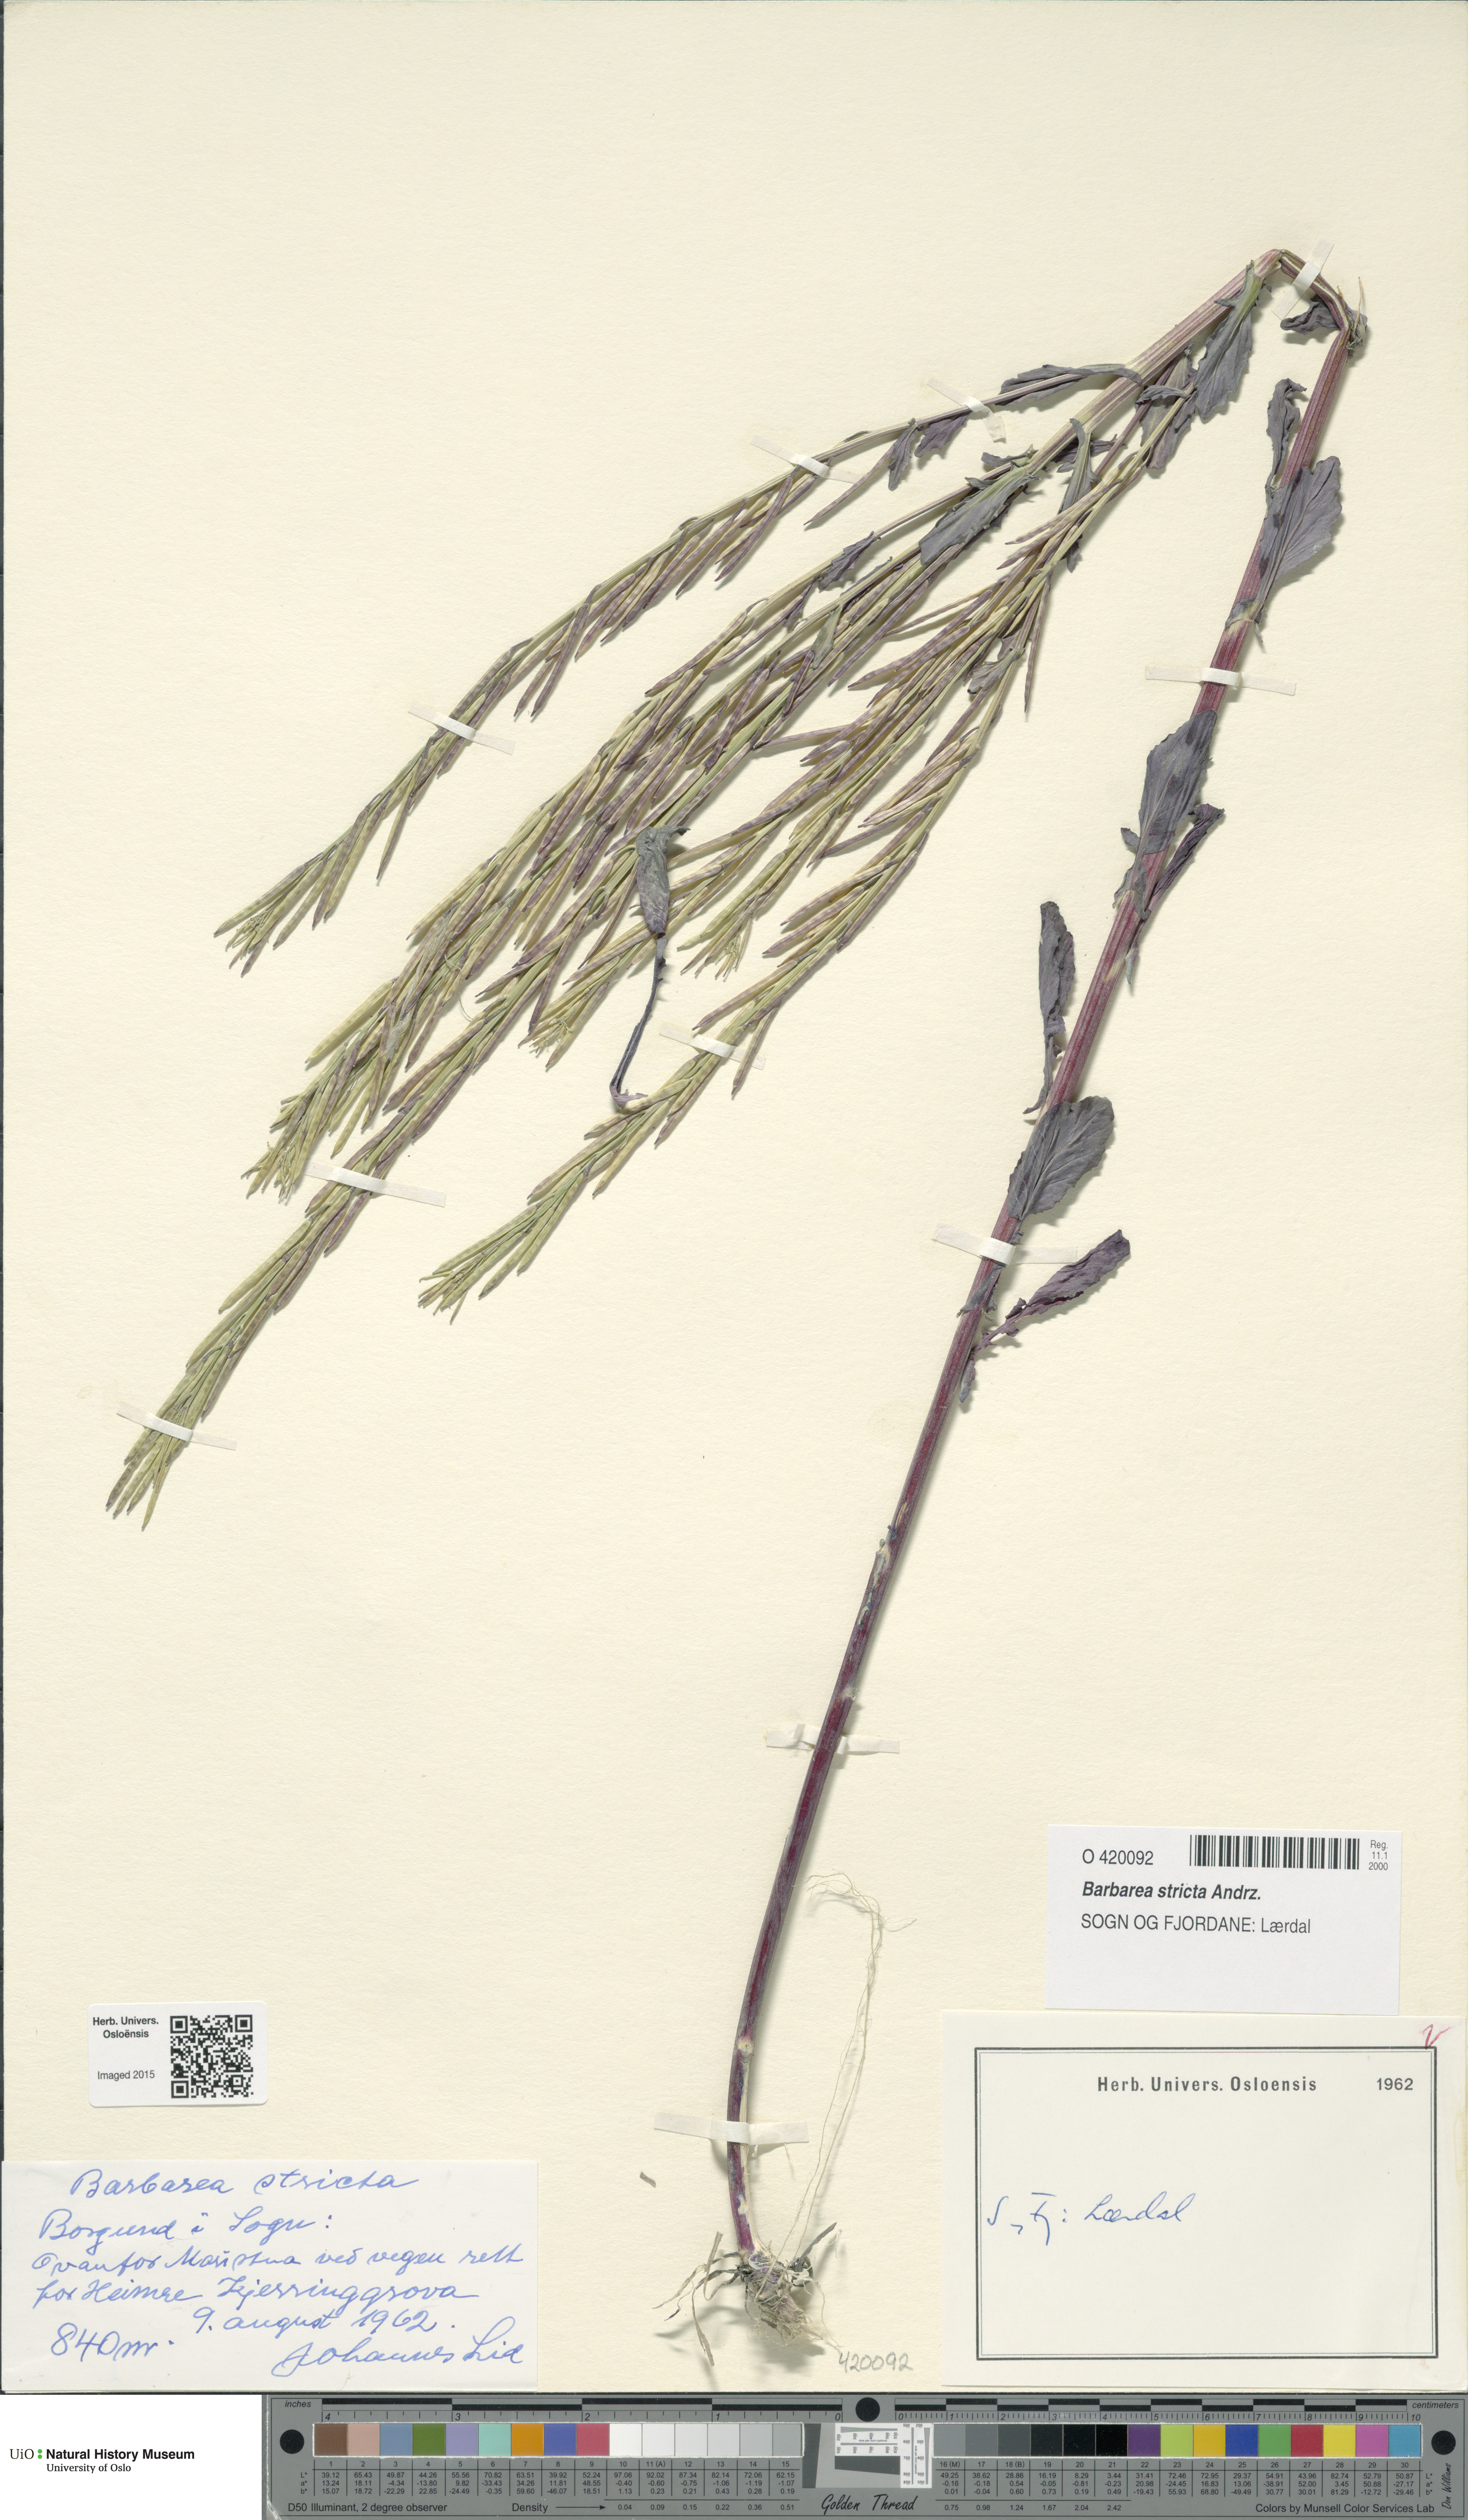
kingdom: Plantae
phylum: Tracheophyta
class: Magnoliopsida
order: Brassicales
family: Brassicaceae
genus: Barbarea
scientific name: Barbarea stricta
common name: Small-flowered winter-cress
